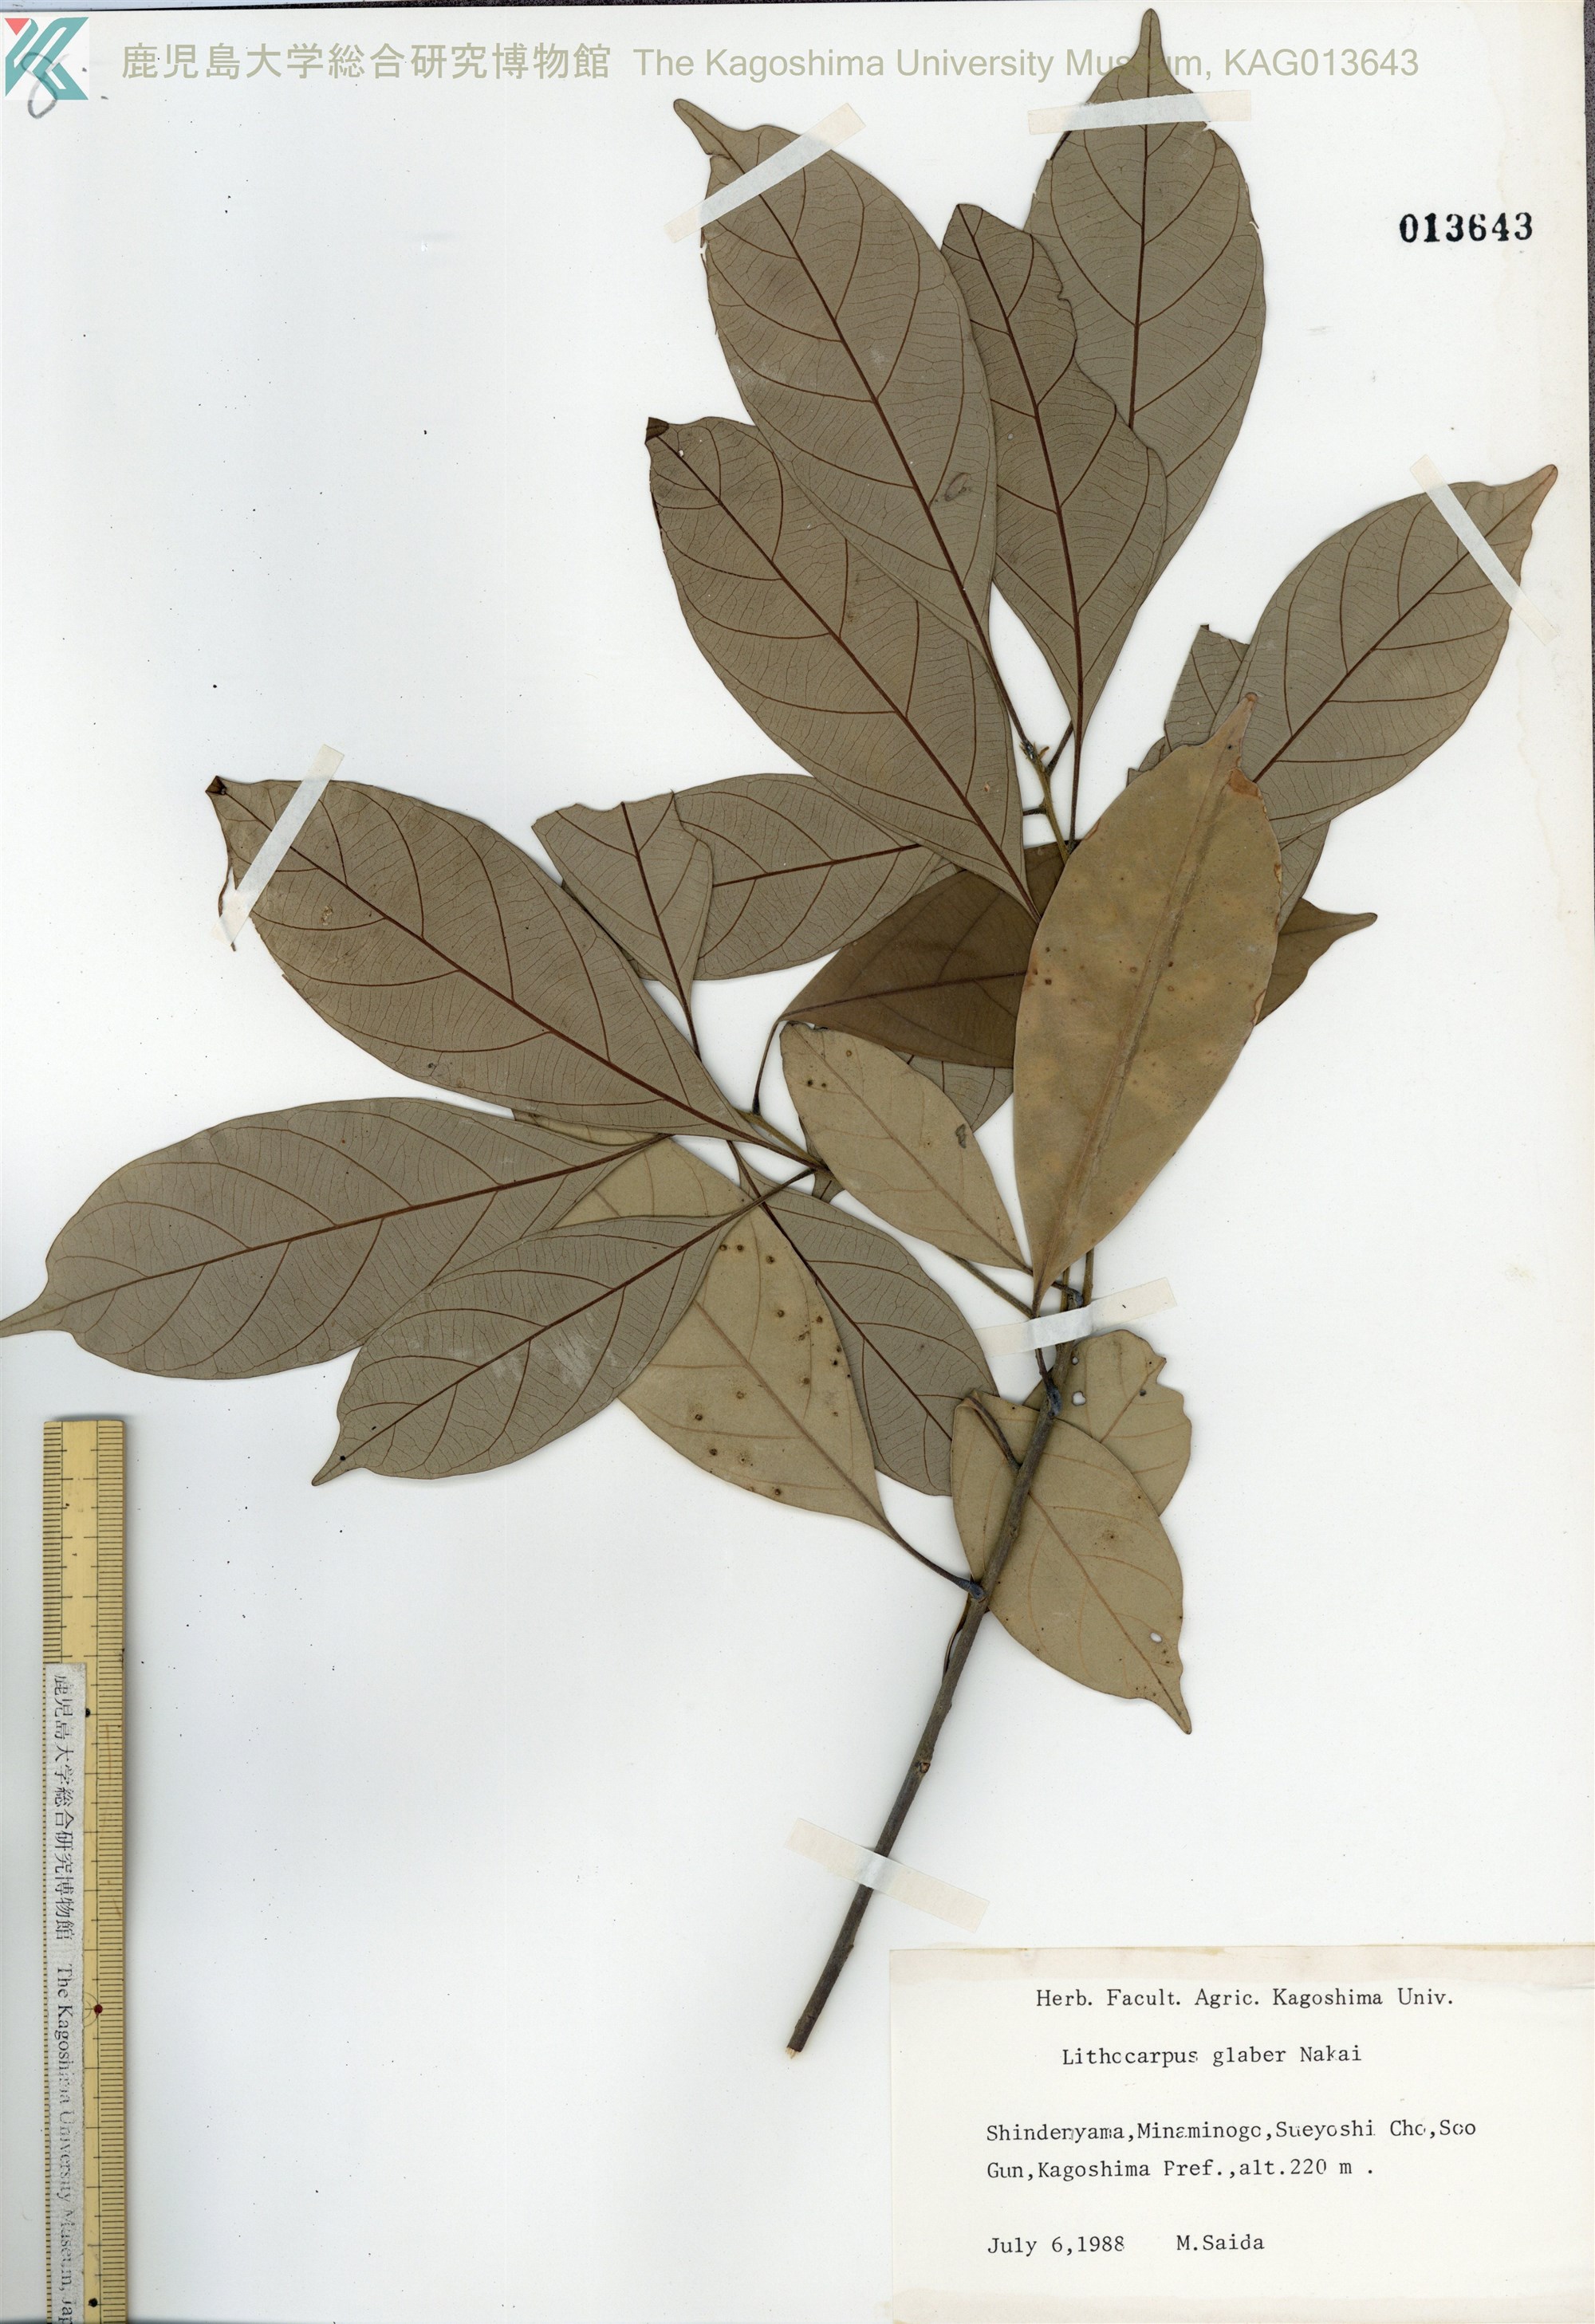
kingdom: Plantae
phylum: Tracheophyta
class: Magnoliopsida
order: Fagales
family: Fagaceae
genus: Lithocarpus
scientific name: Lithocarpus glaber
